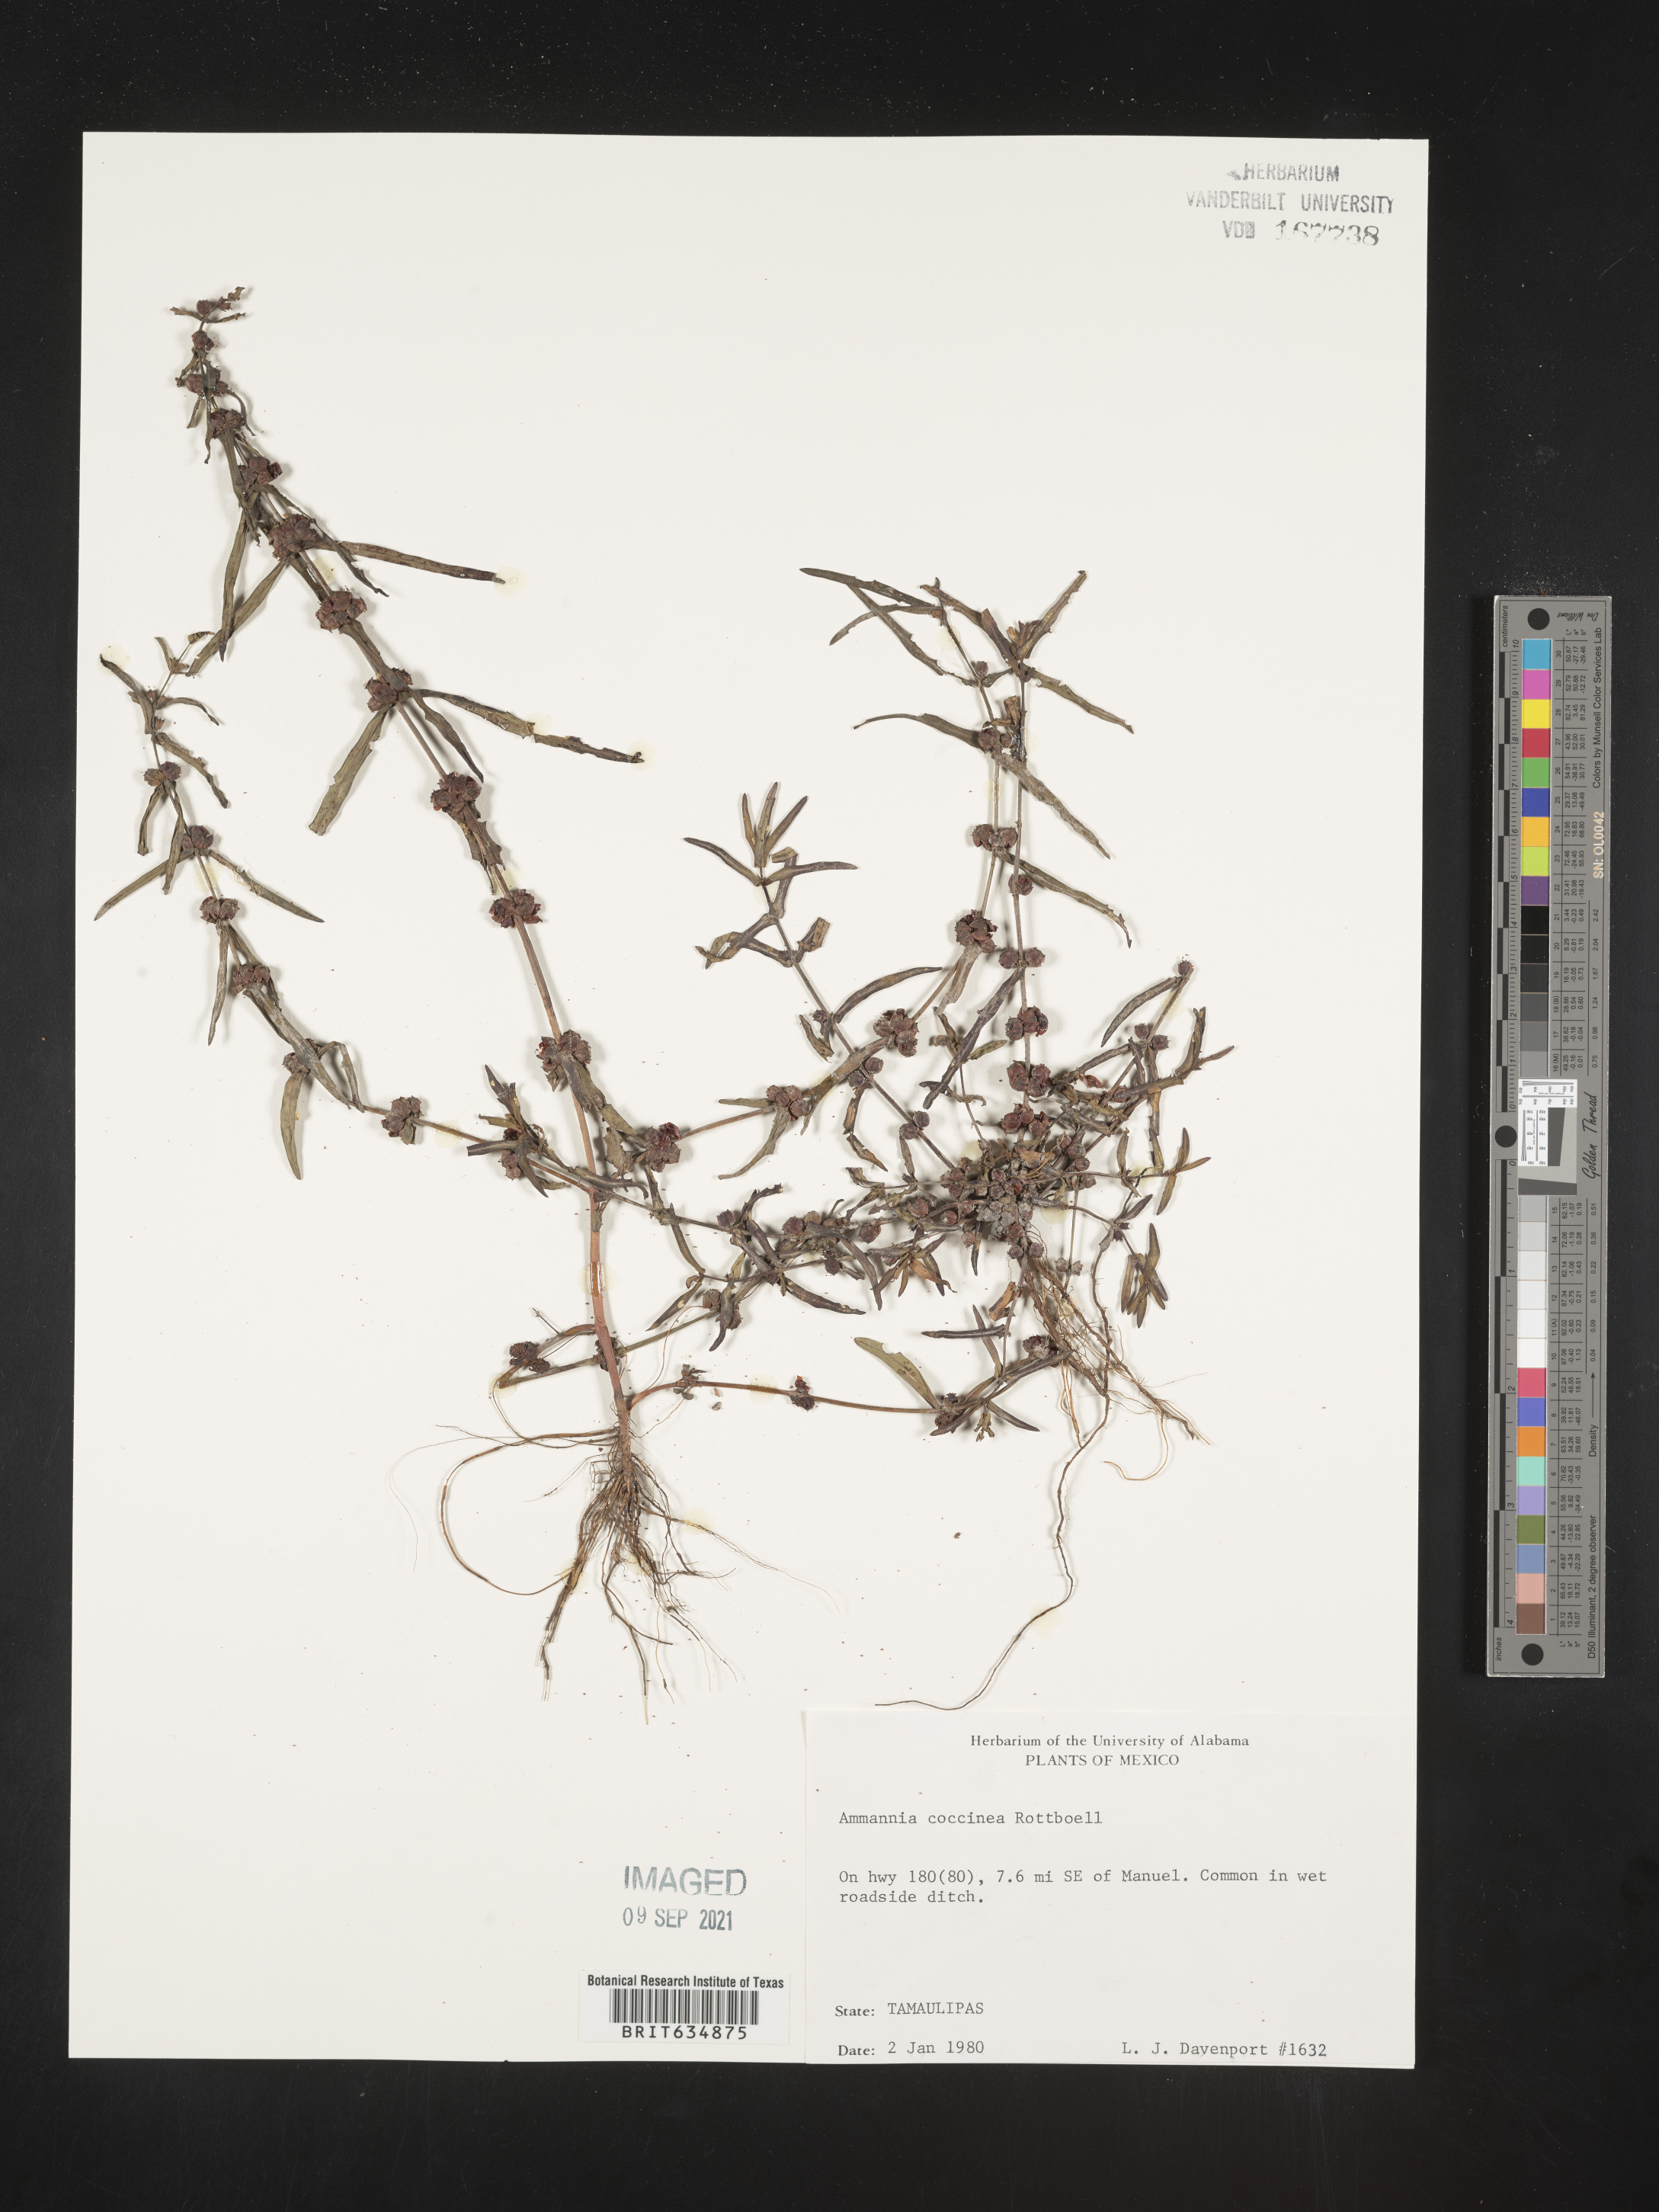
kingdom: Plantae
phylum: Tracheophyta
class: Magnoliopsida
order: Myrtales
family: Lythraceae
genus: Ammannia
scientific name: Ammannia
